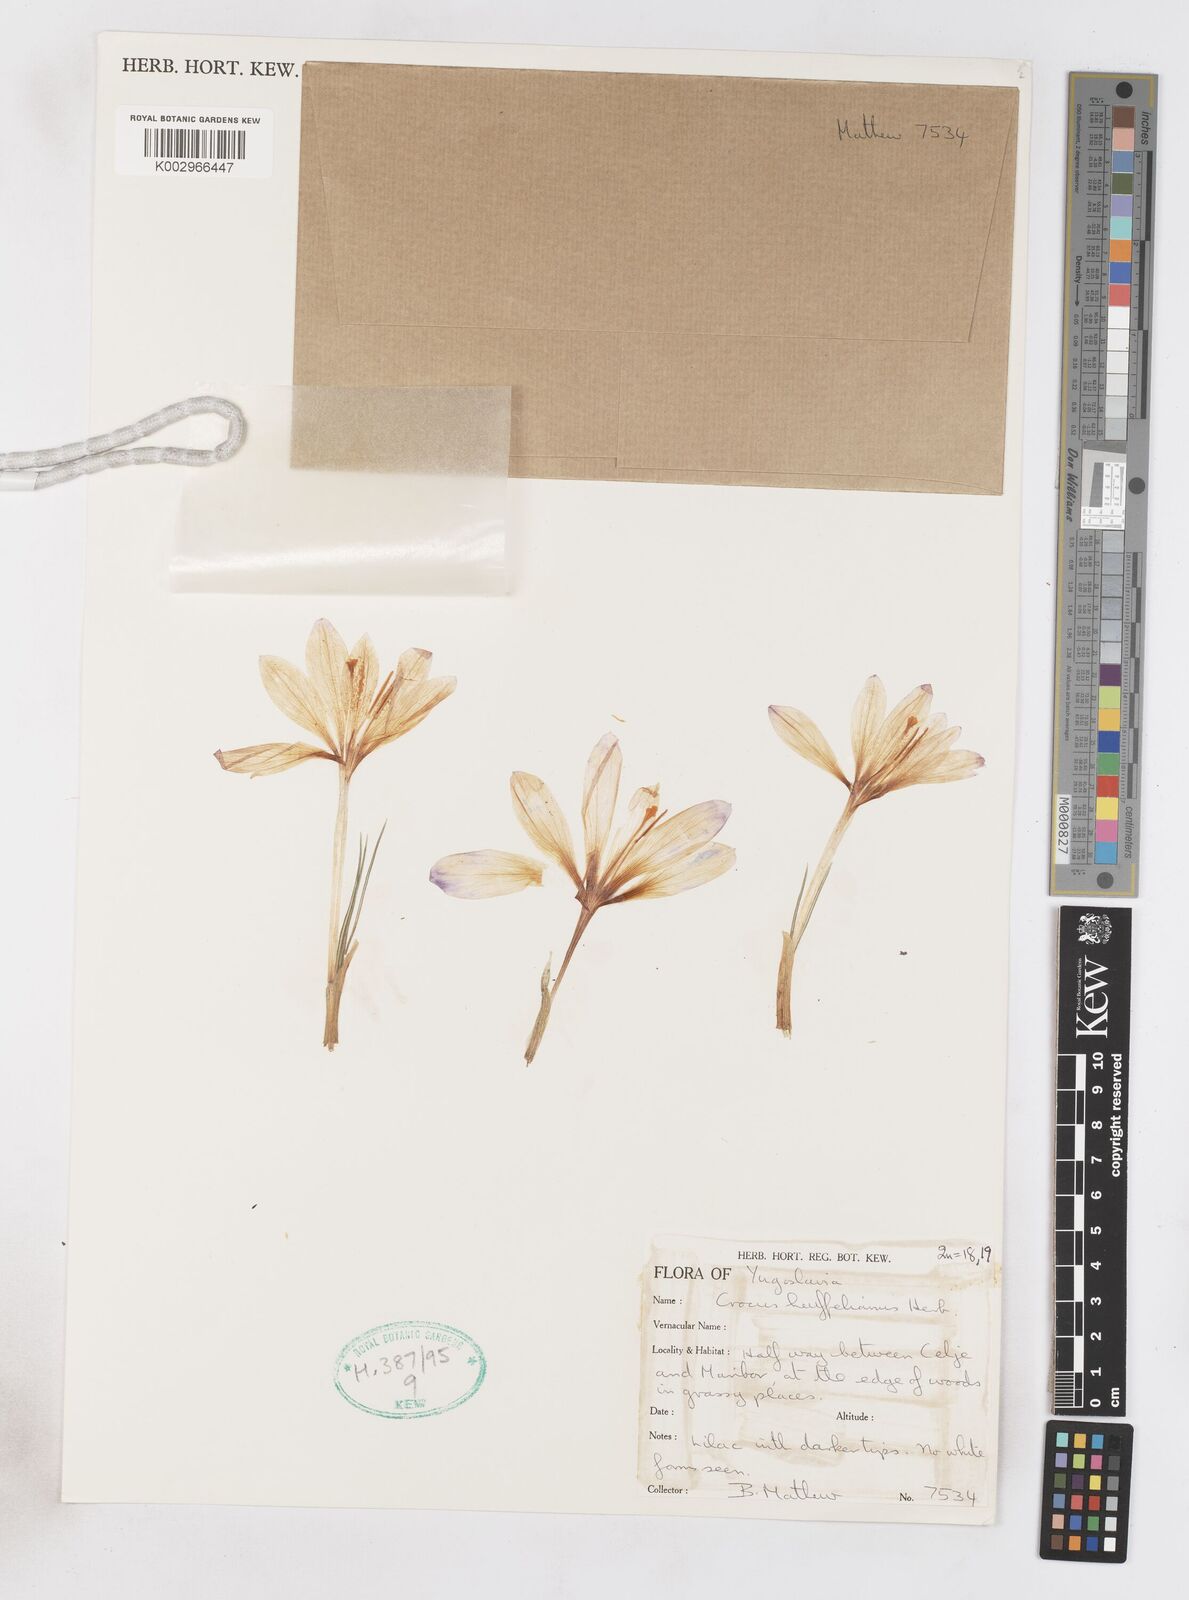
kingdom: Plantae
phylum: Tracheophyta
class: Liliopsida
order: Asparagales
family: Iridaceae
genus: Crocus
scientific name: Crocus vernus
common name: Spring crocus
